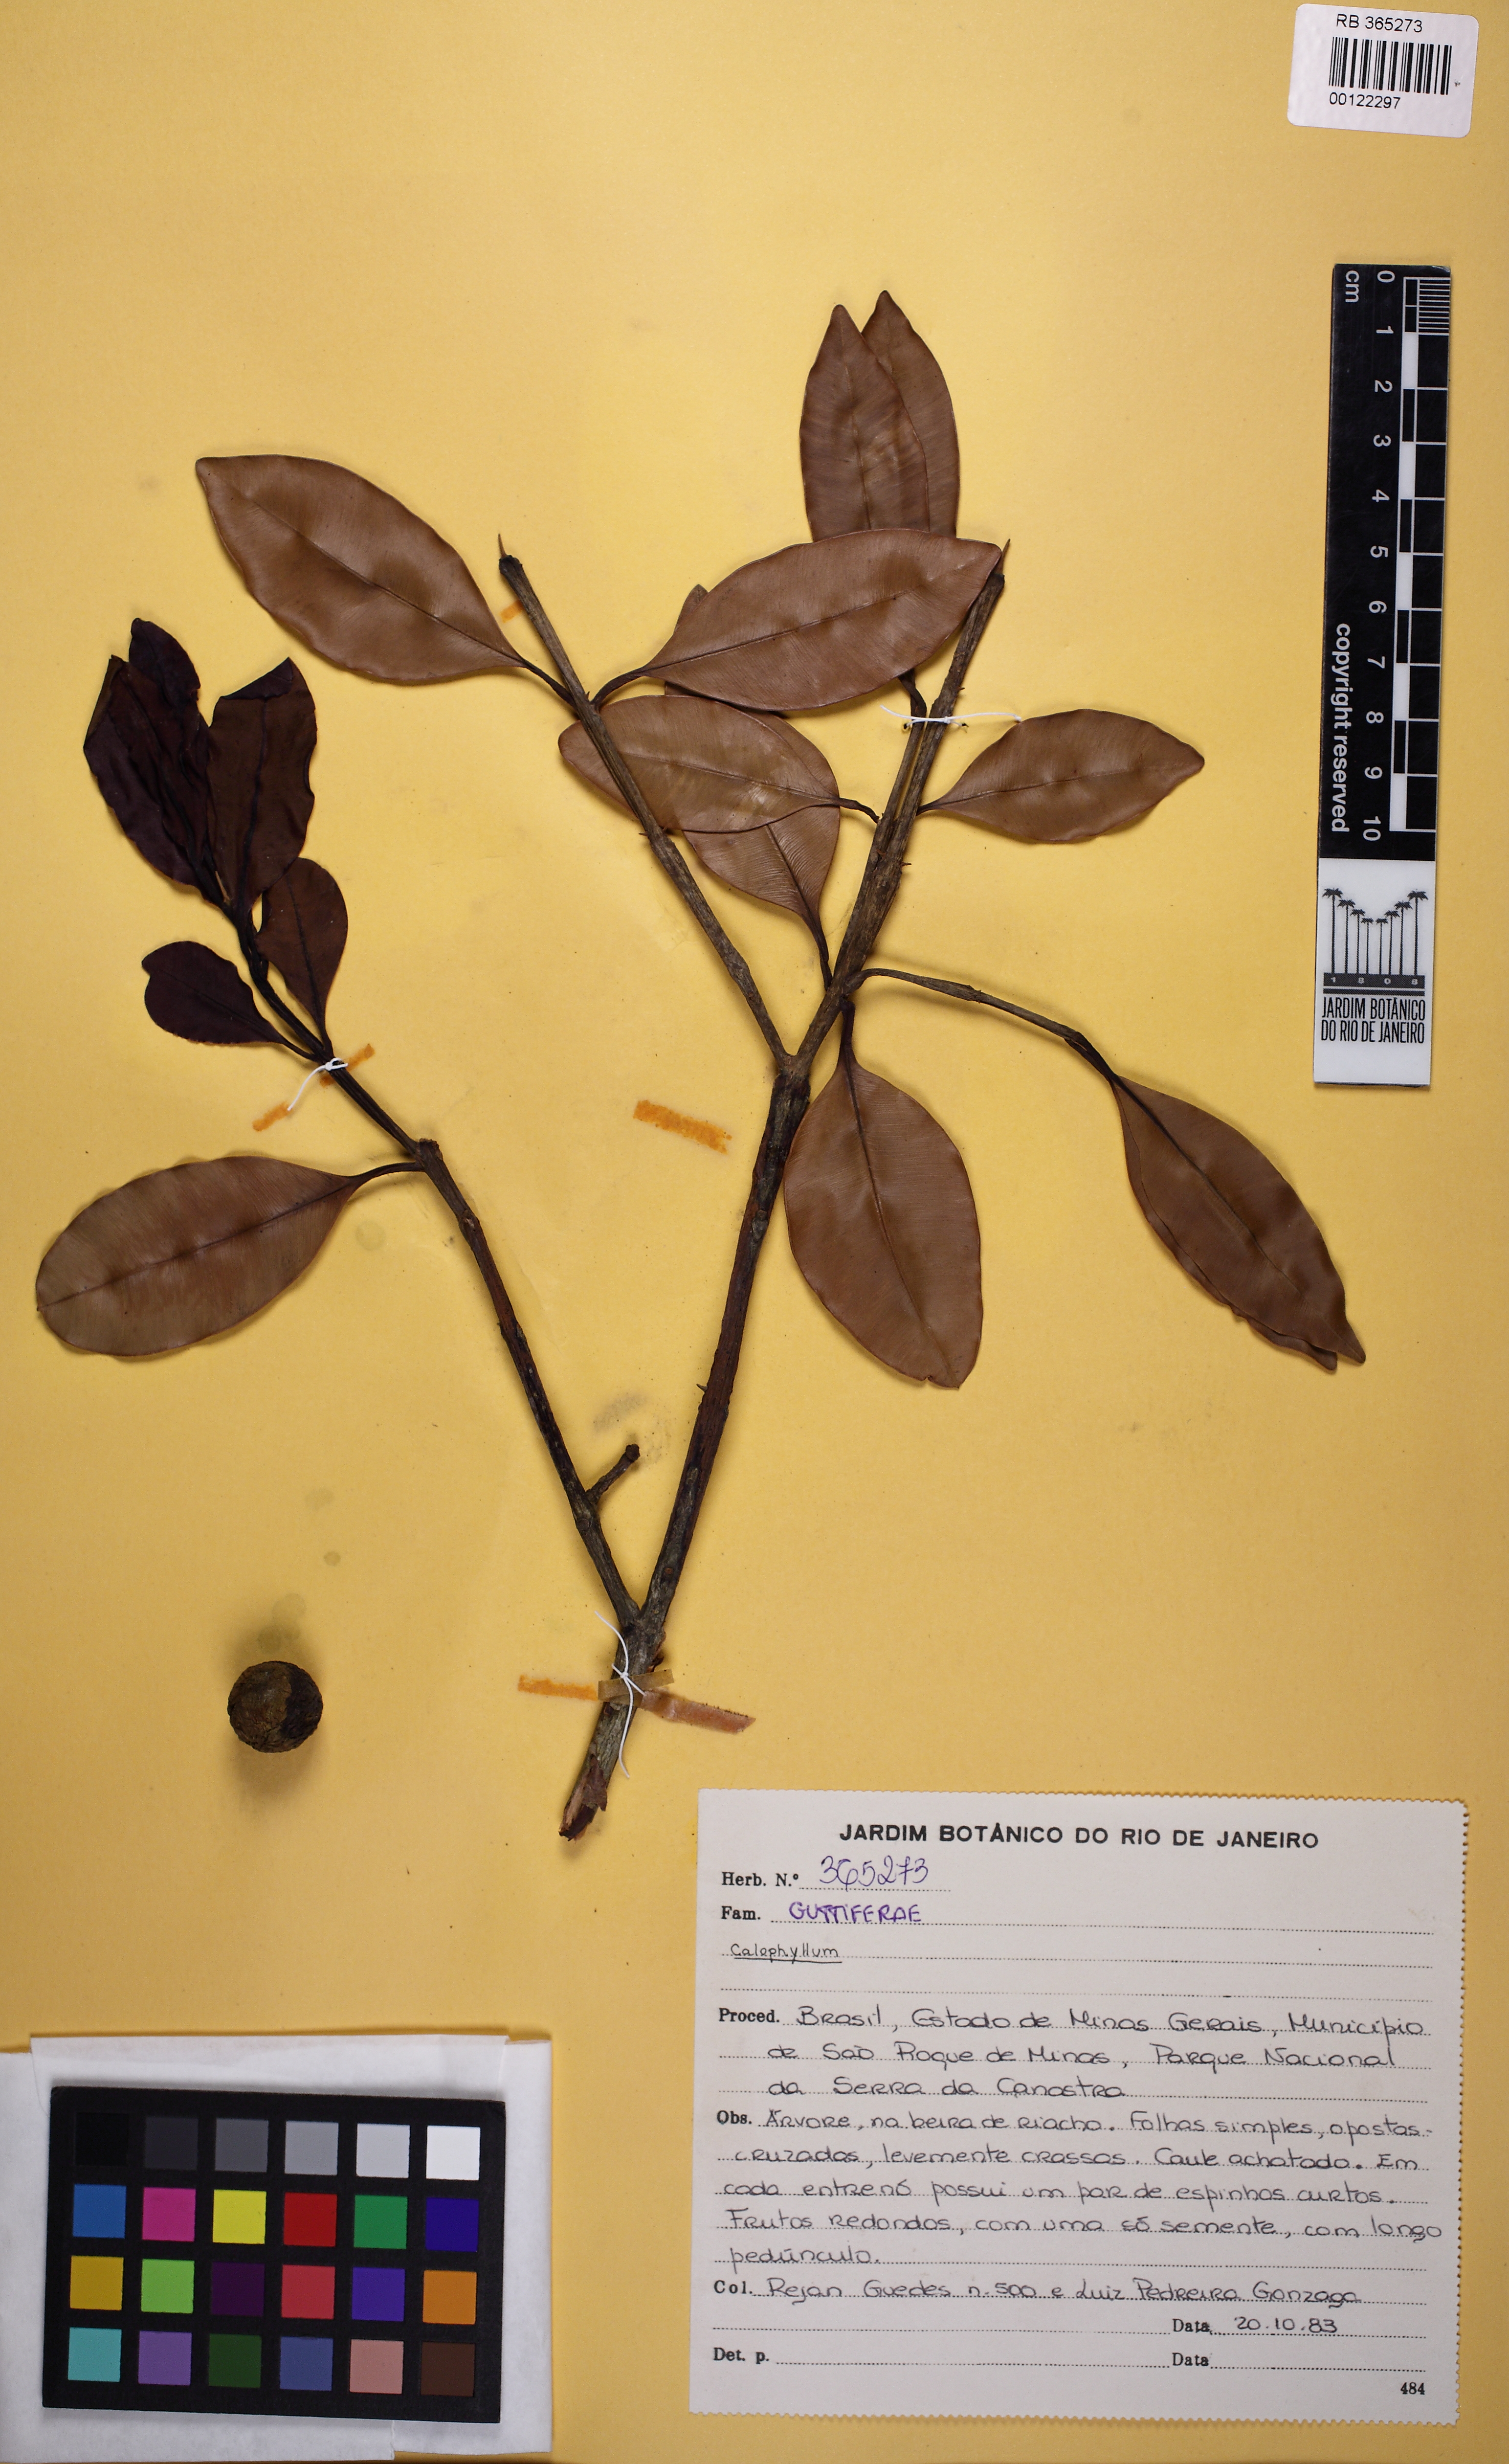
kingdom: Plantae
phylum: Tracheophyta
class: Magnoliopsida
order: Malpighiales
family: Hypericaceae
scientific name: Hypericaceae
